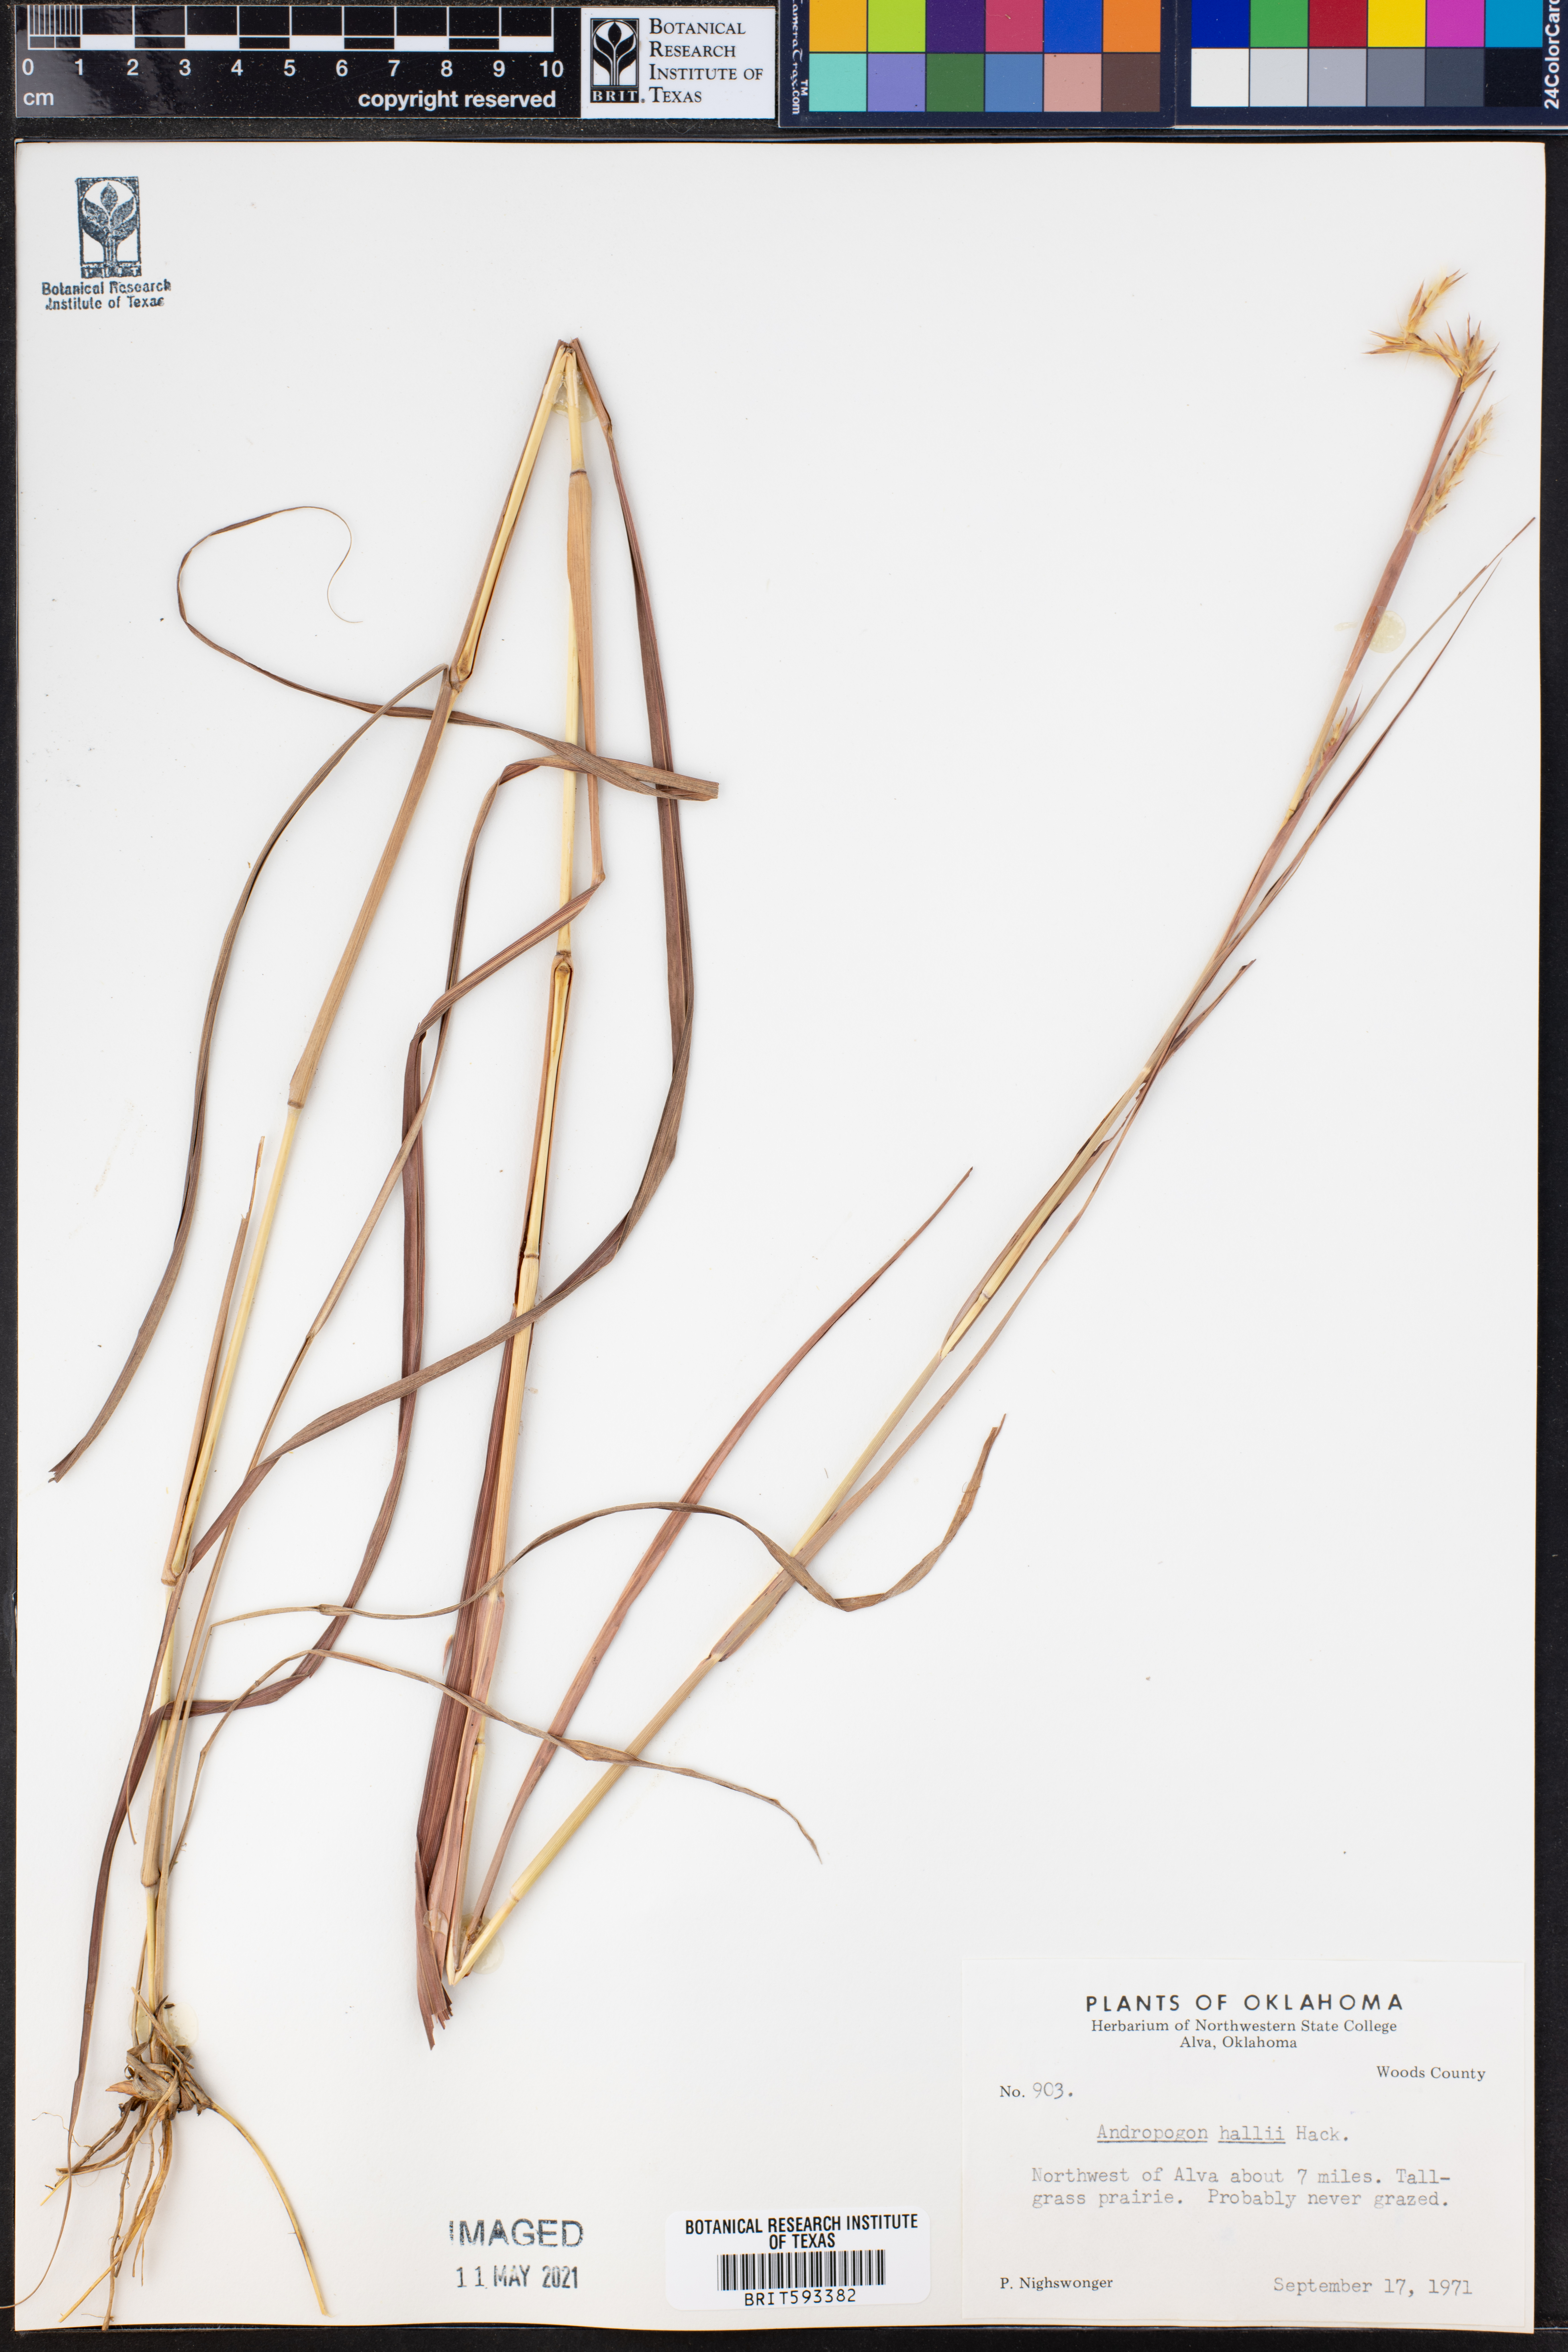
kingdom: Plantae
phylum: Tracheophyta
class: Liliopsida
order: Poales
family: Poaceae
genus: Andropogon
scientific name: Andropogon hallii
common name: Sand bluestem
